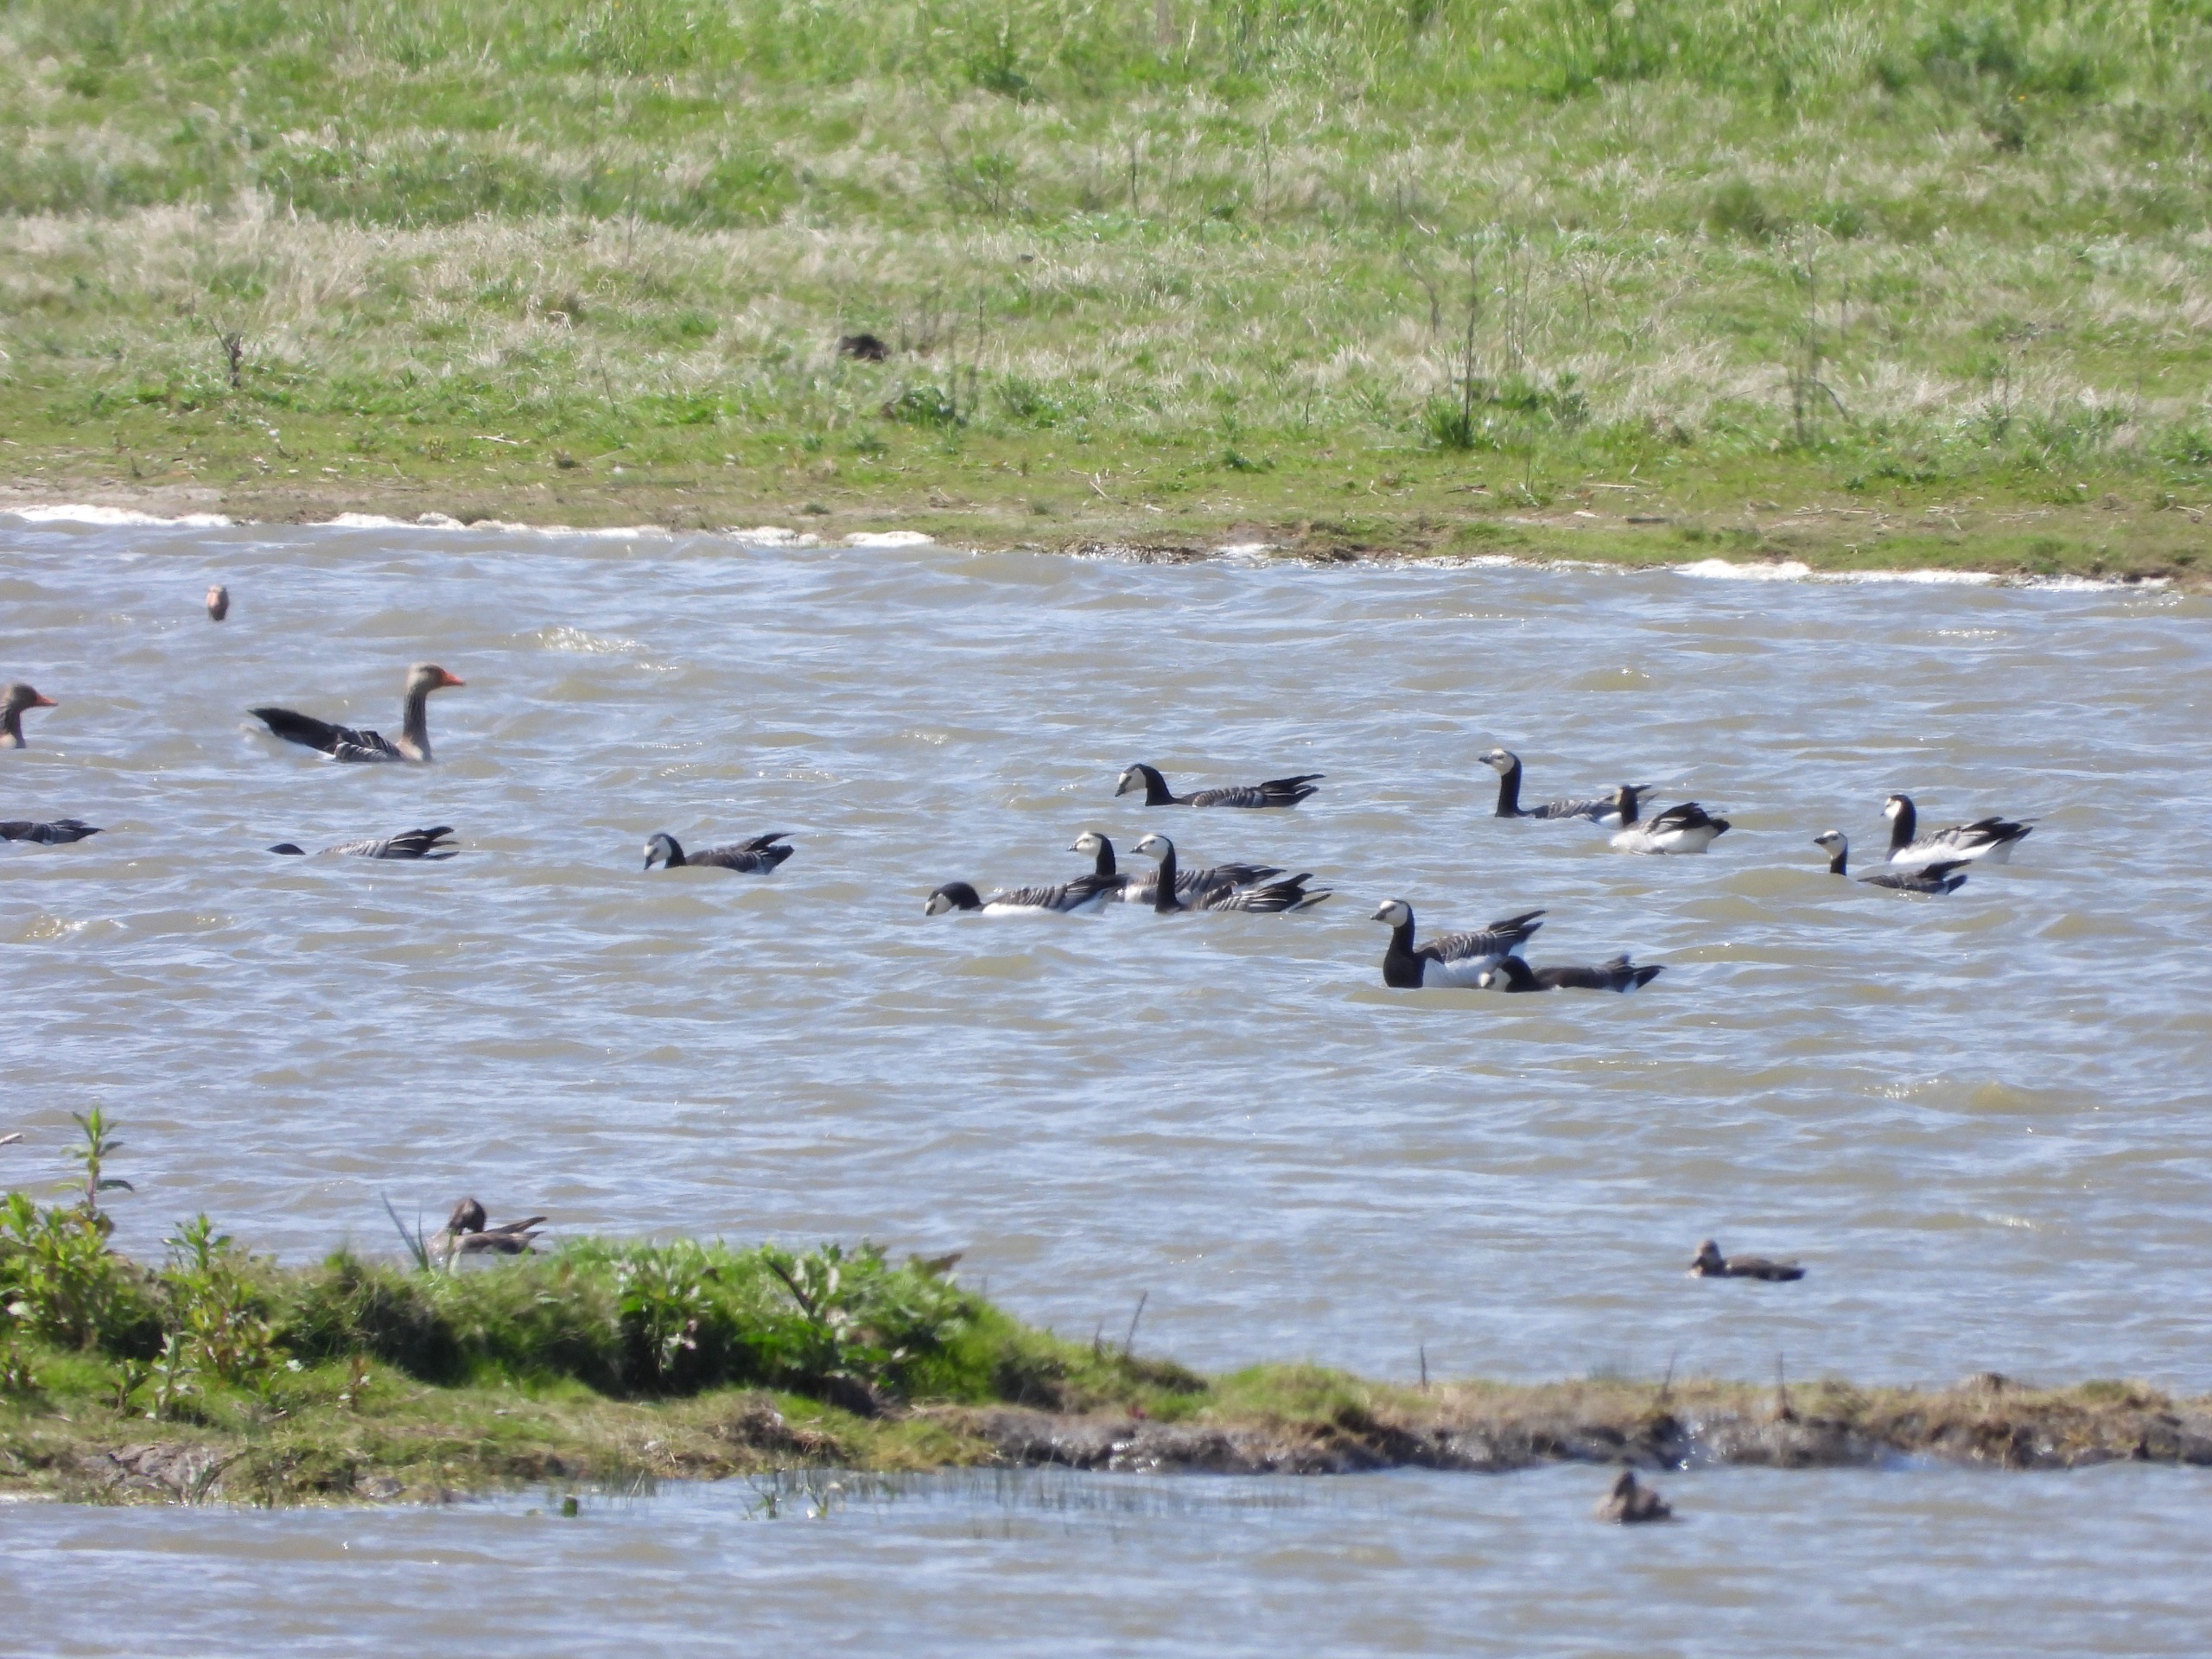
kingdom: Animalia
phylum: Chordata
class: Aves
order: Anseriformes
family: Anatidae
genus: Branta
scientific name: Branta leucopsis
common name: Bramgås
